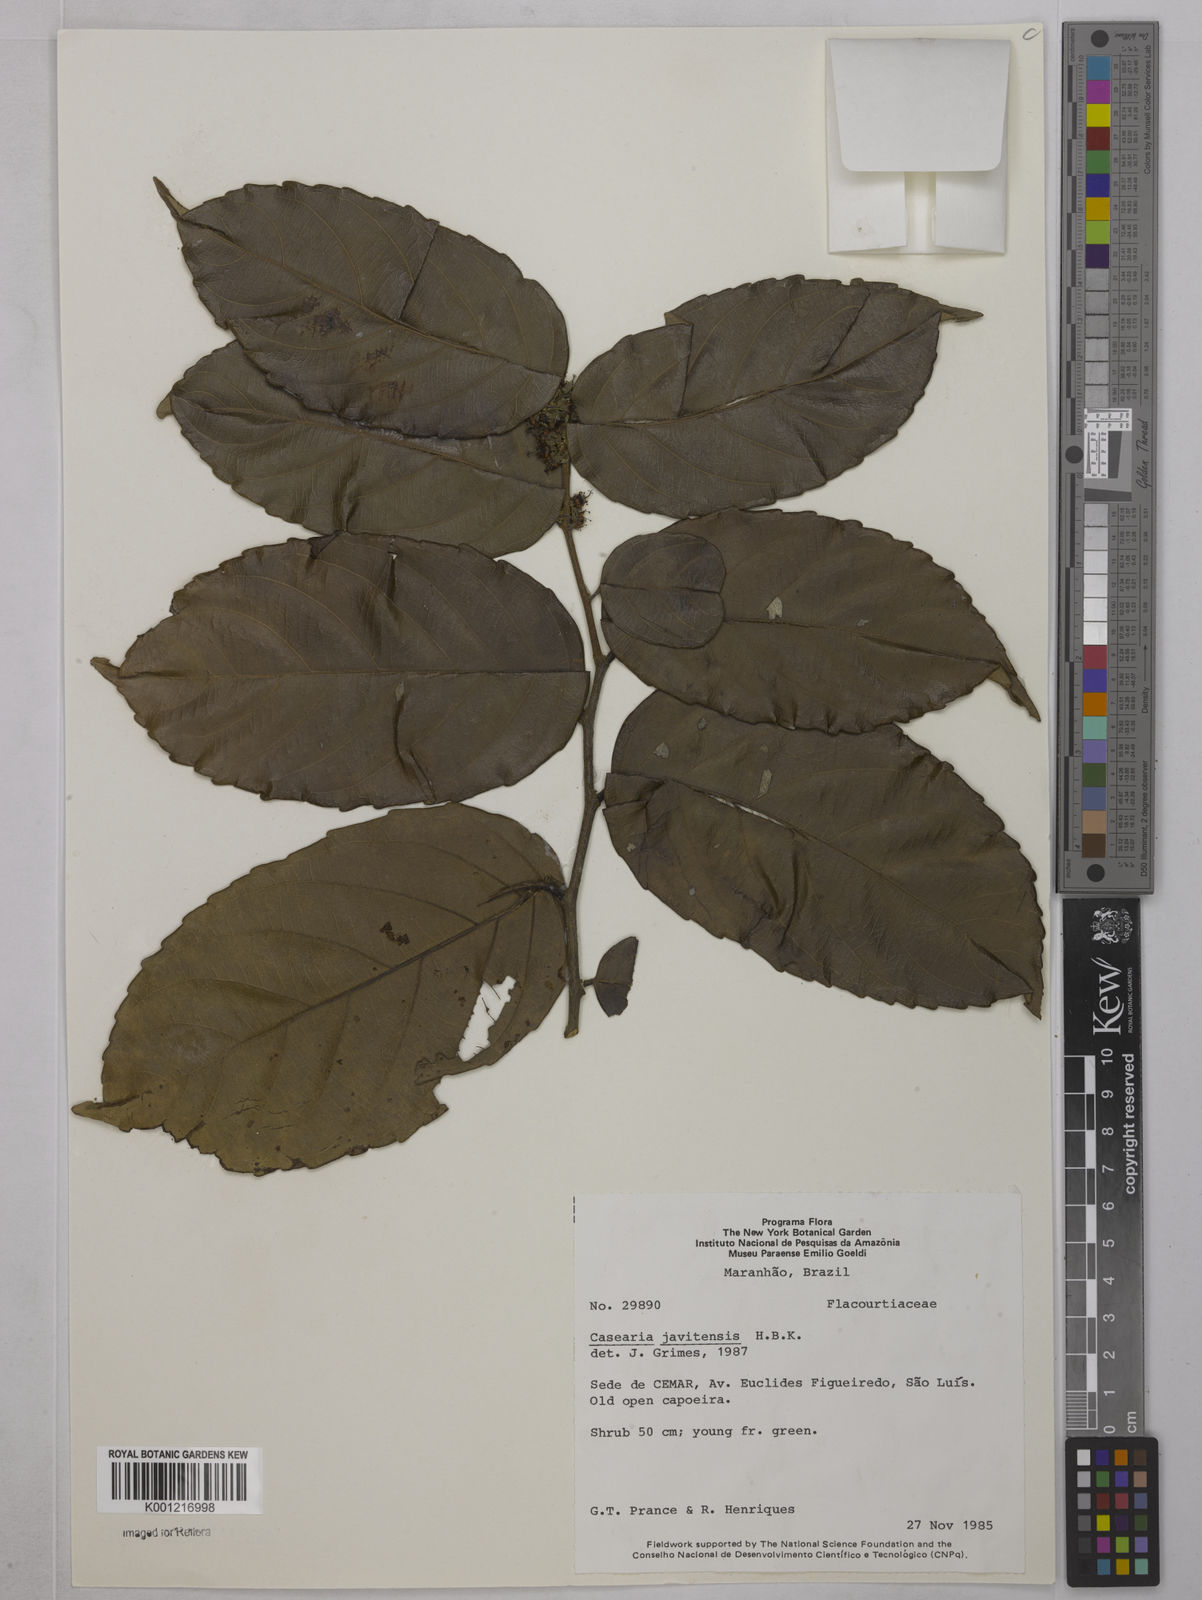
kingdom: Plantae
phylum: Tracheophyta
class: Magnoliopsida
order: Malpighiales
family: Salicaceae
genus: Piparea
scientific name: Piparea multiflora
